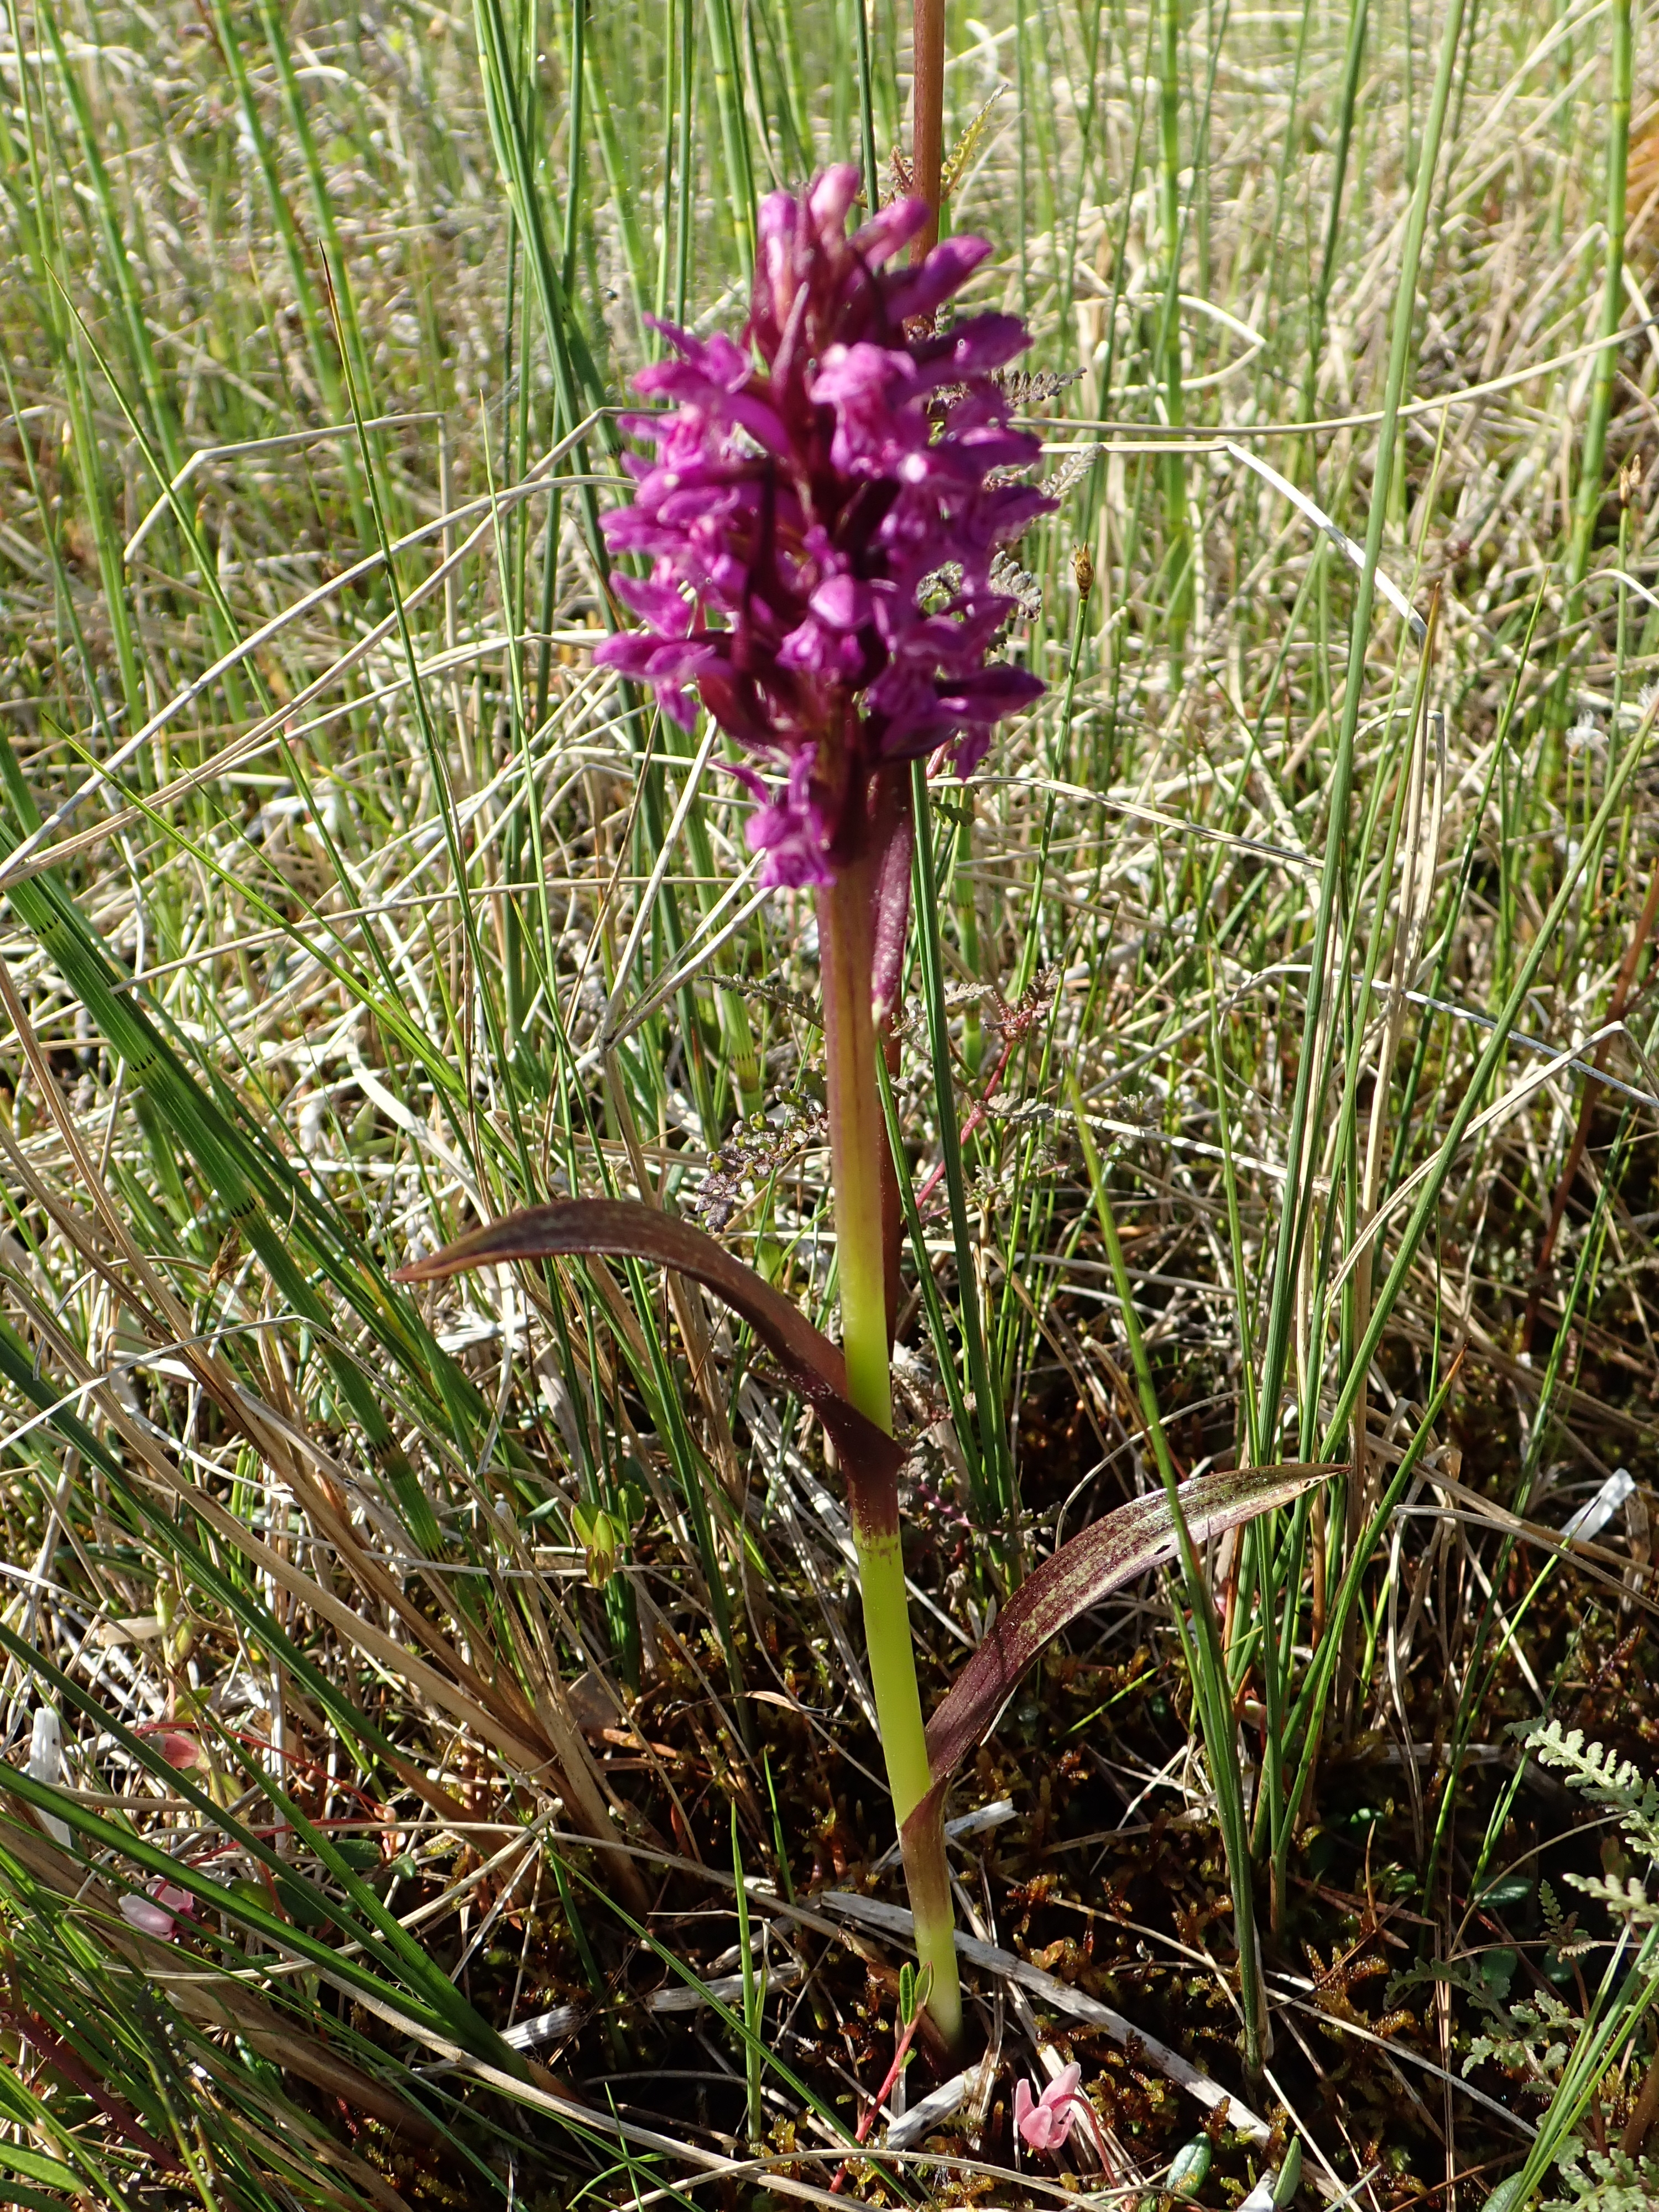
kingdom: Plantae
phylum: Tracheophyta
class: Liliopsida
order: Asparagales
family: Orchidaceae
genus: Dactylorhiza
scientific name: Dactylorhiza incarnata
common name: Early marsh-orchid
